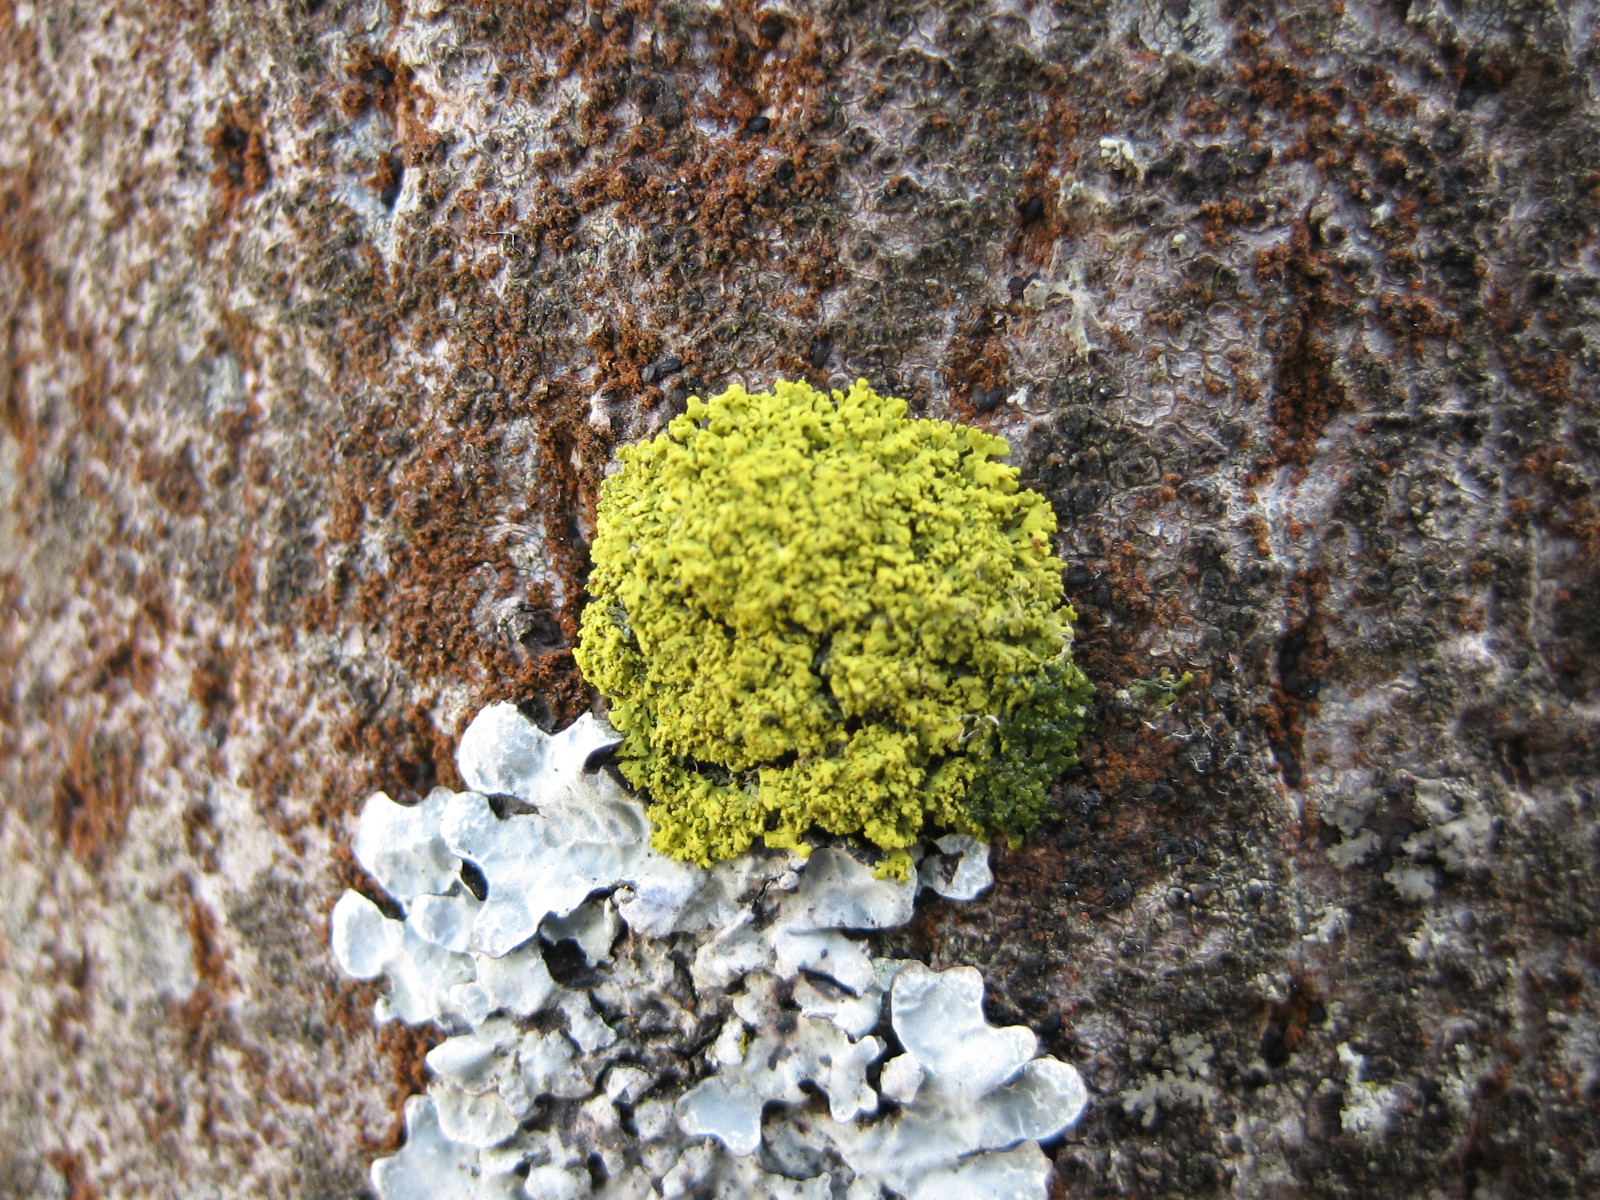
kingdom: Fungi
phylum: Ascomycota
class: Candelariomycetes
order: Candelariales
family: Candelariaceae
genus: Candelaria
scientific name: Candelaria concolor
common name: fliget smørlav
